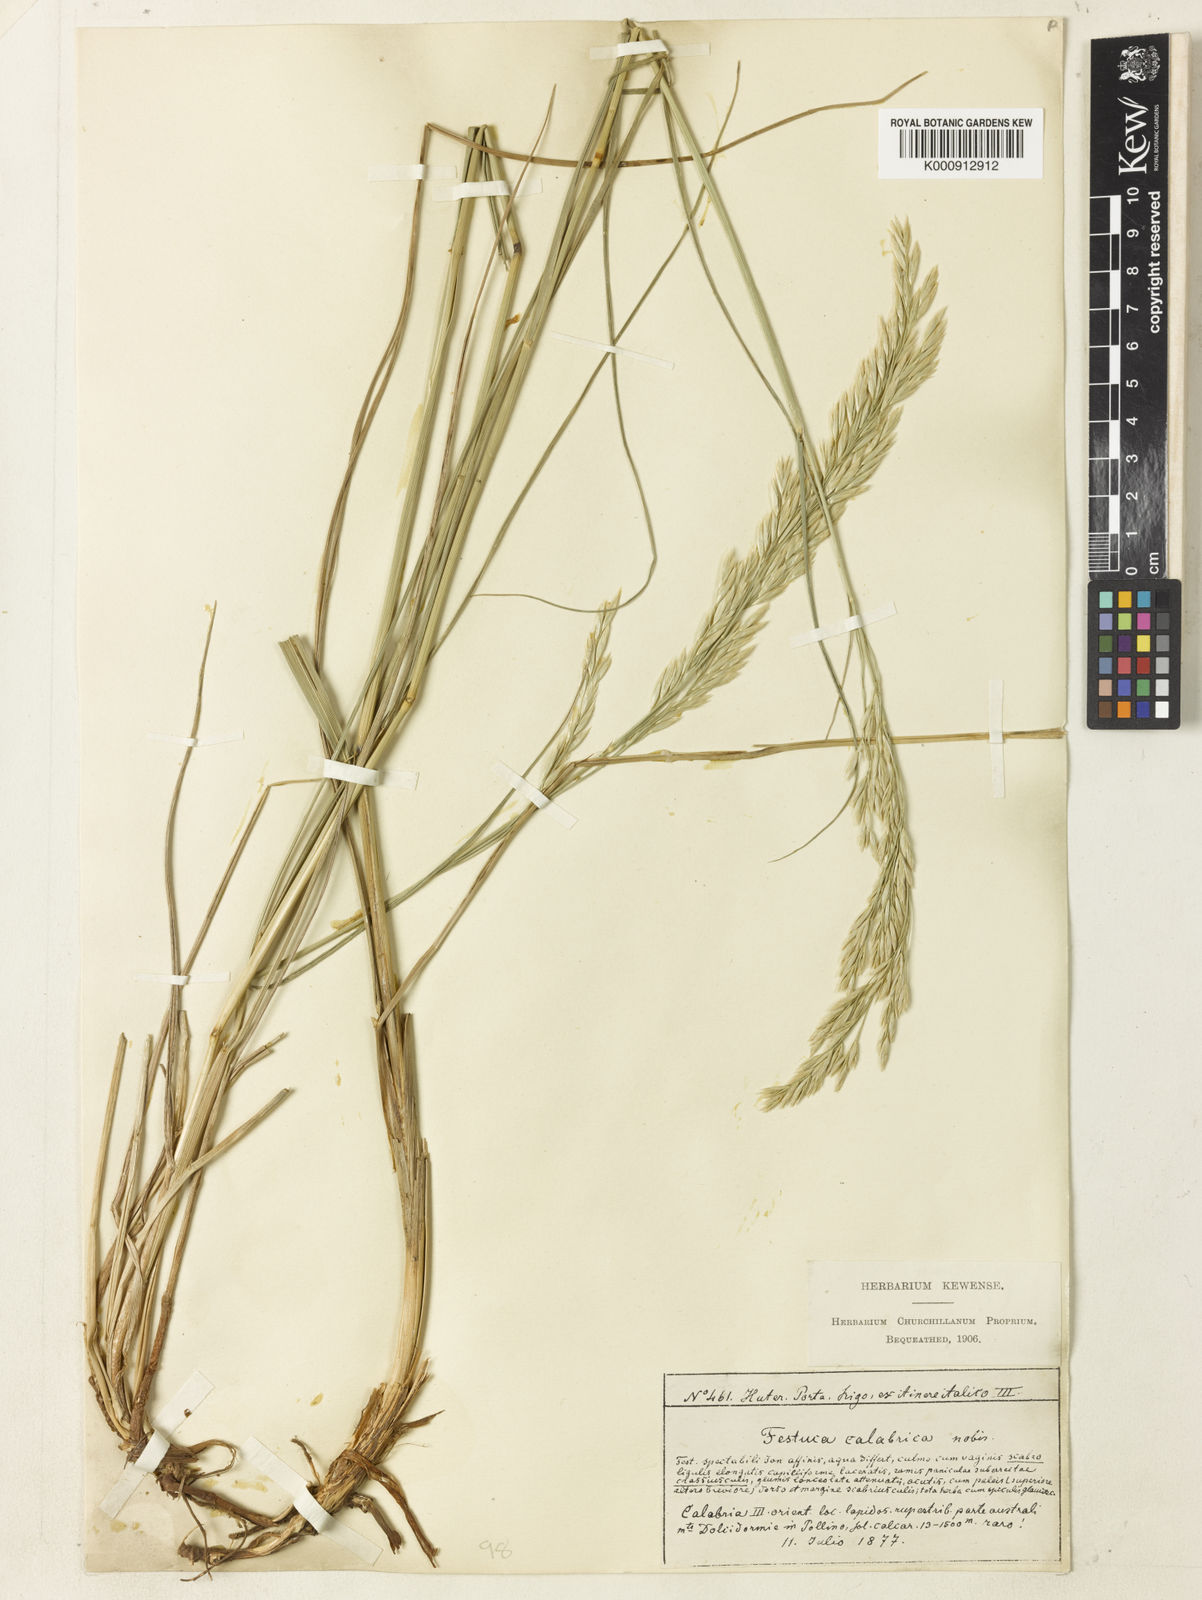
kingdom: Plantae
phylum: Tracheophyta
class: Liliopsida
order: Poales
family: Poaceae
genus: Festuca
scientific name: Festuca
